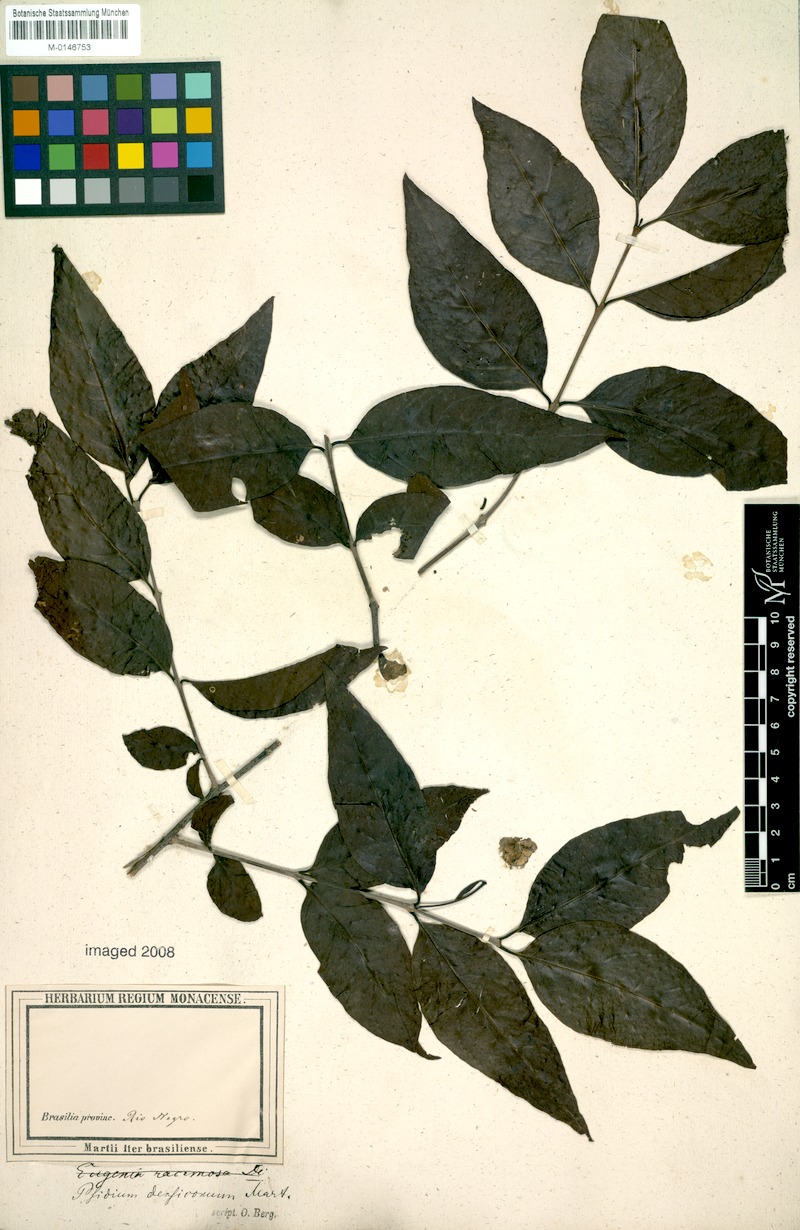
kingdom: Plantae
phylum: Tracheophyta
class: Magnoliopsida
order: Myrtales
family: Myrtaceae
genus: Psidium
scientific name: Psidium densicomum
